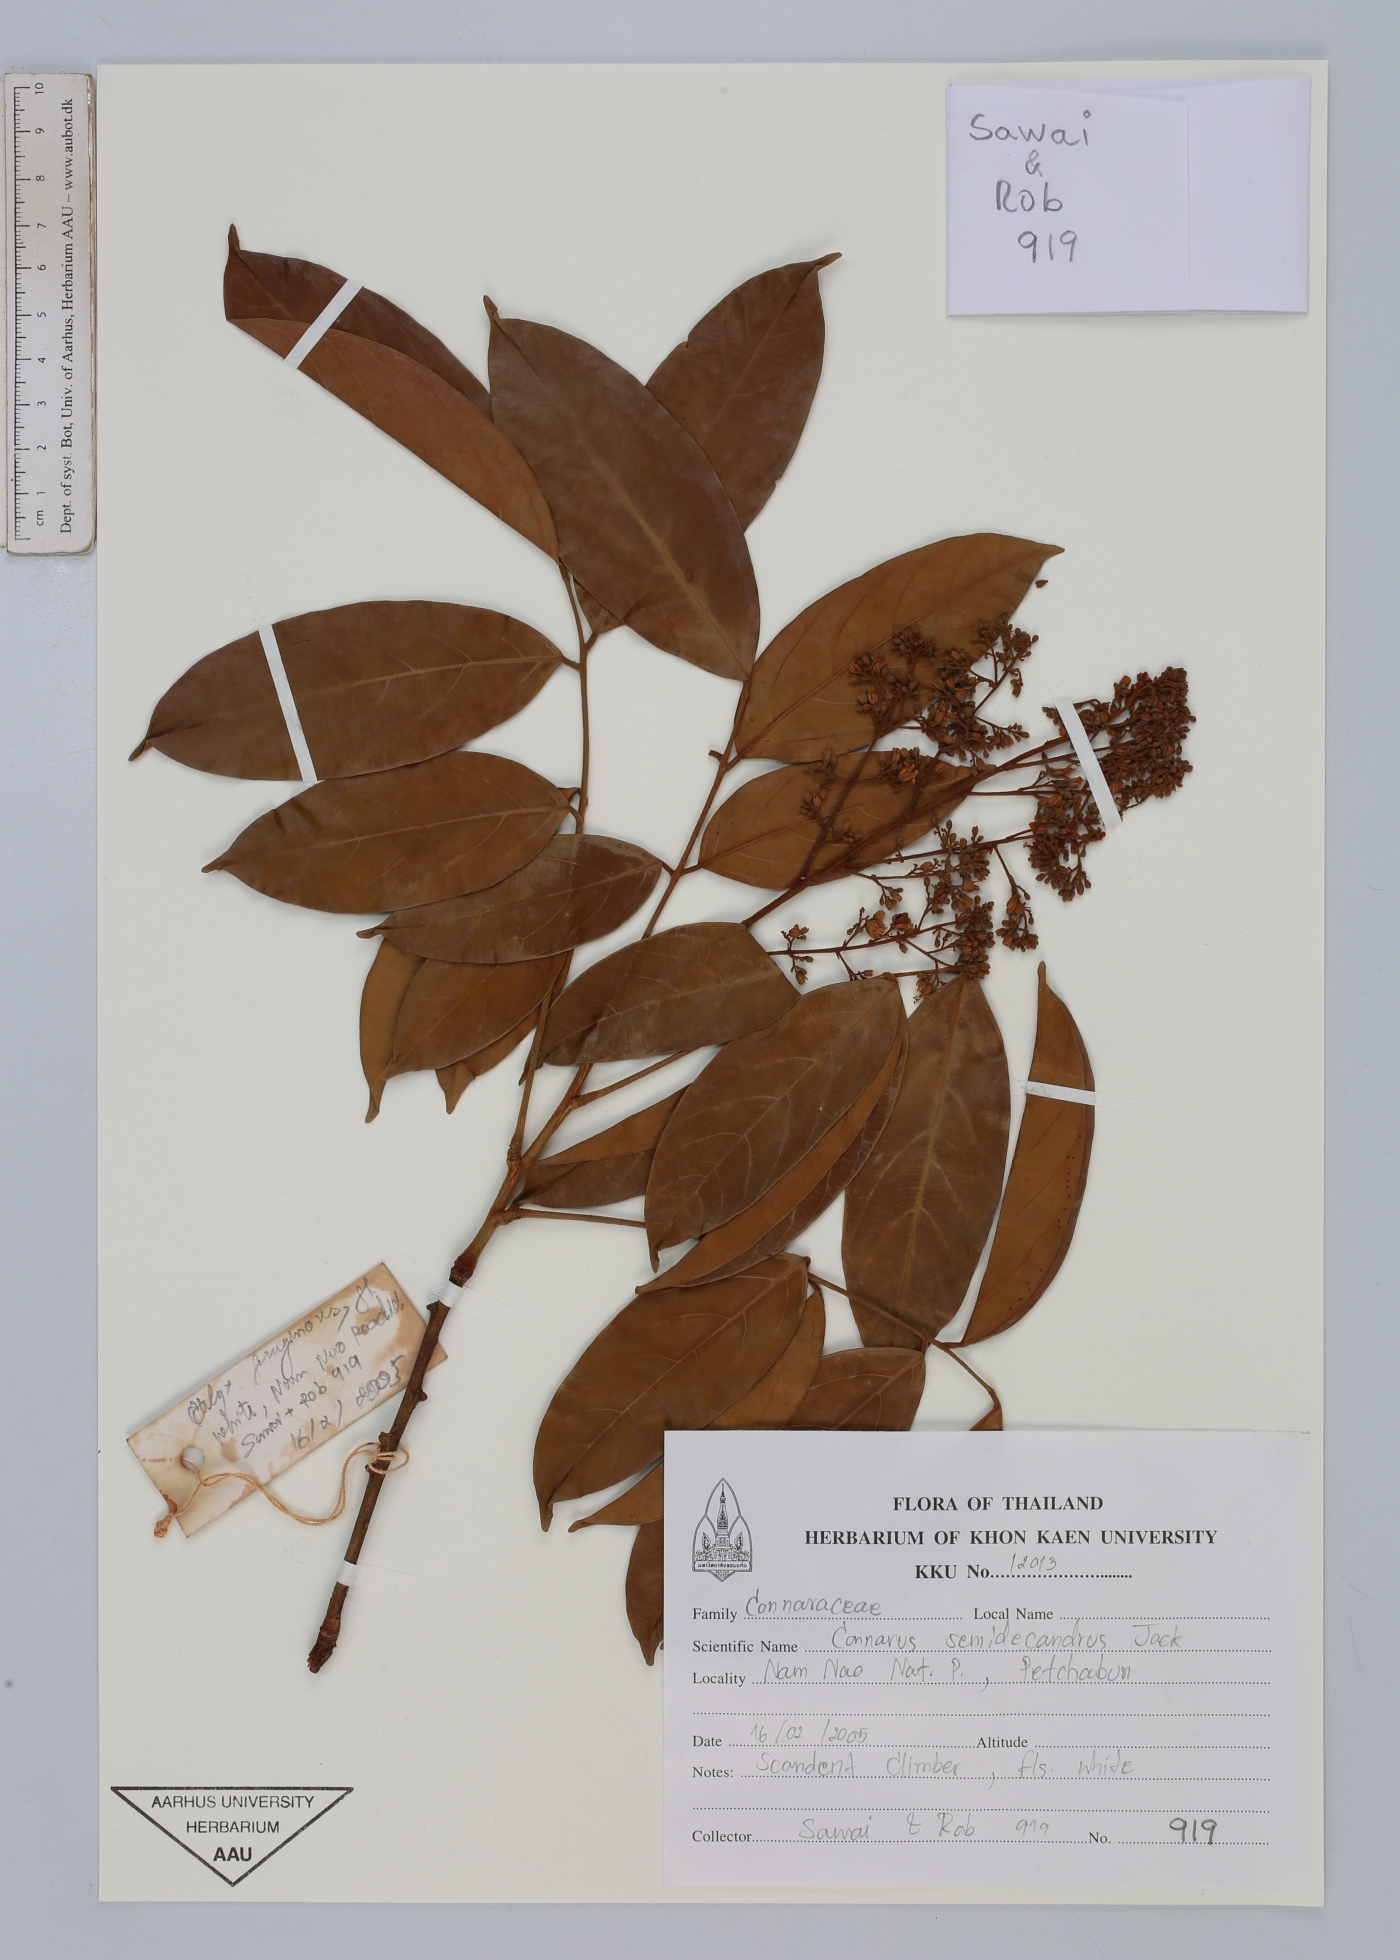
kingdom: Plantae
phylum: Tracheophyta
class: Magnoliopsida
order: Oxalidales
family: Connaraceae
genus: Connarus
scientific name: Connarus semidecandrus
